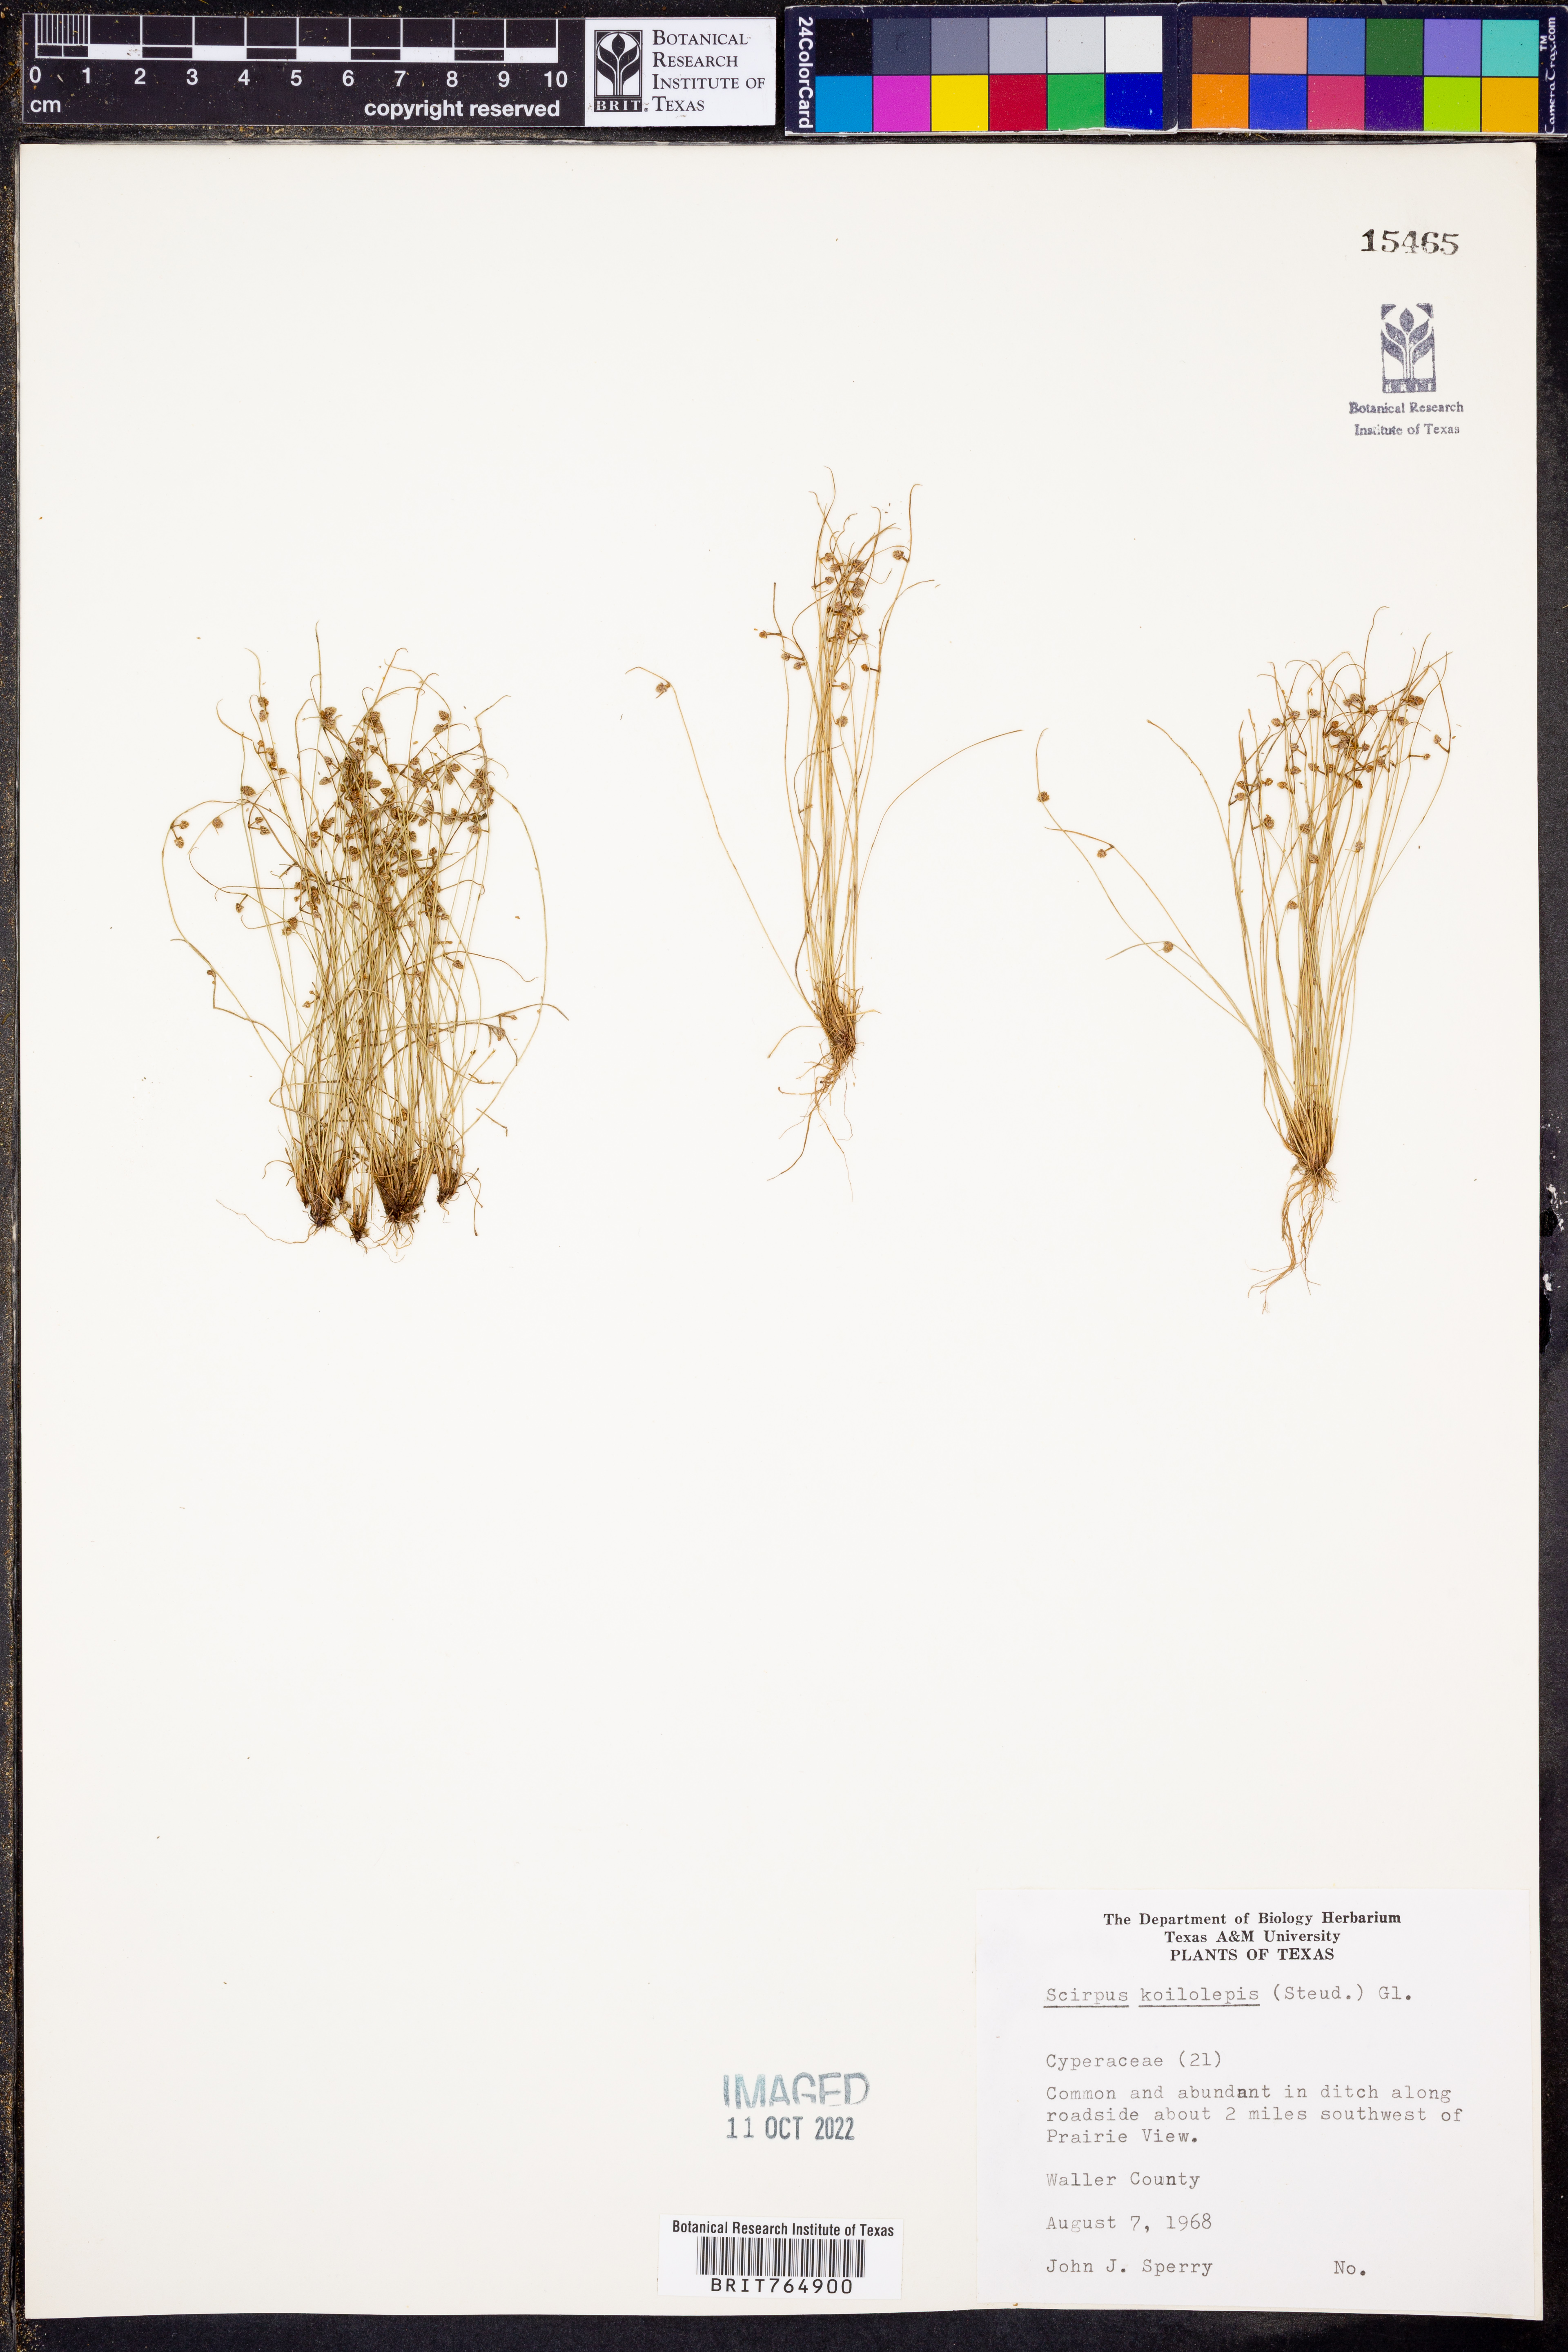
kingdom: Plantae
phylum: Tracheophyta
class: Liliopsida
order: Poales
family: Cyperaceae
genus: Isolepis
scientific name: Isolepis carinata
